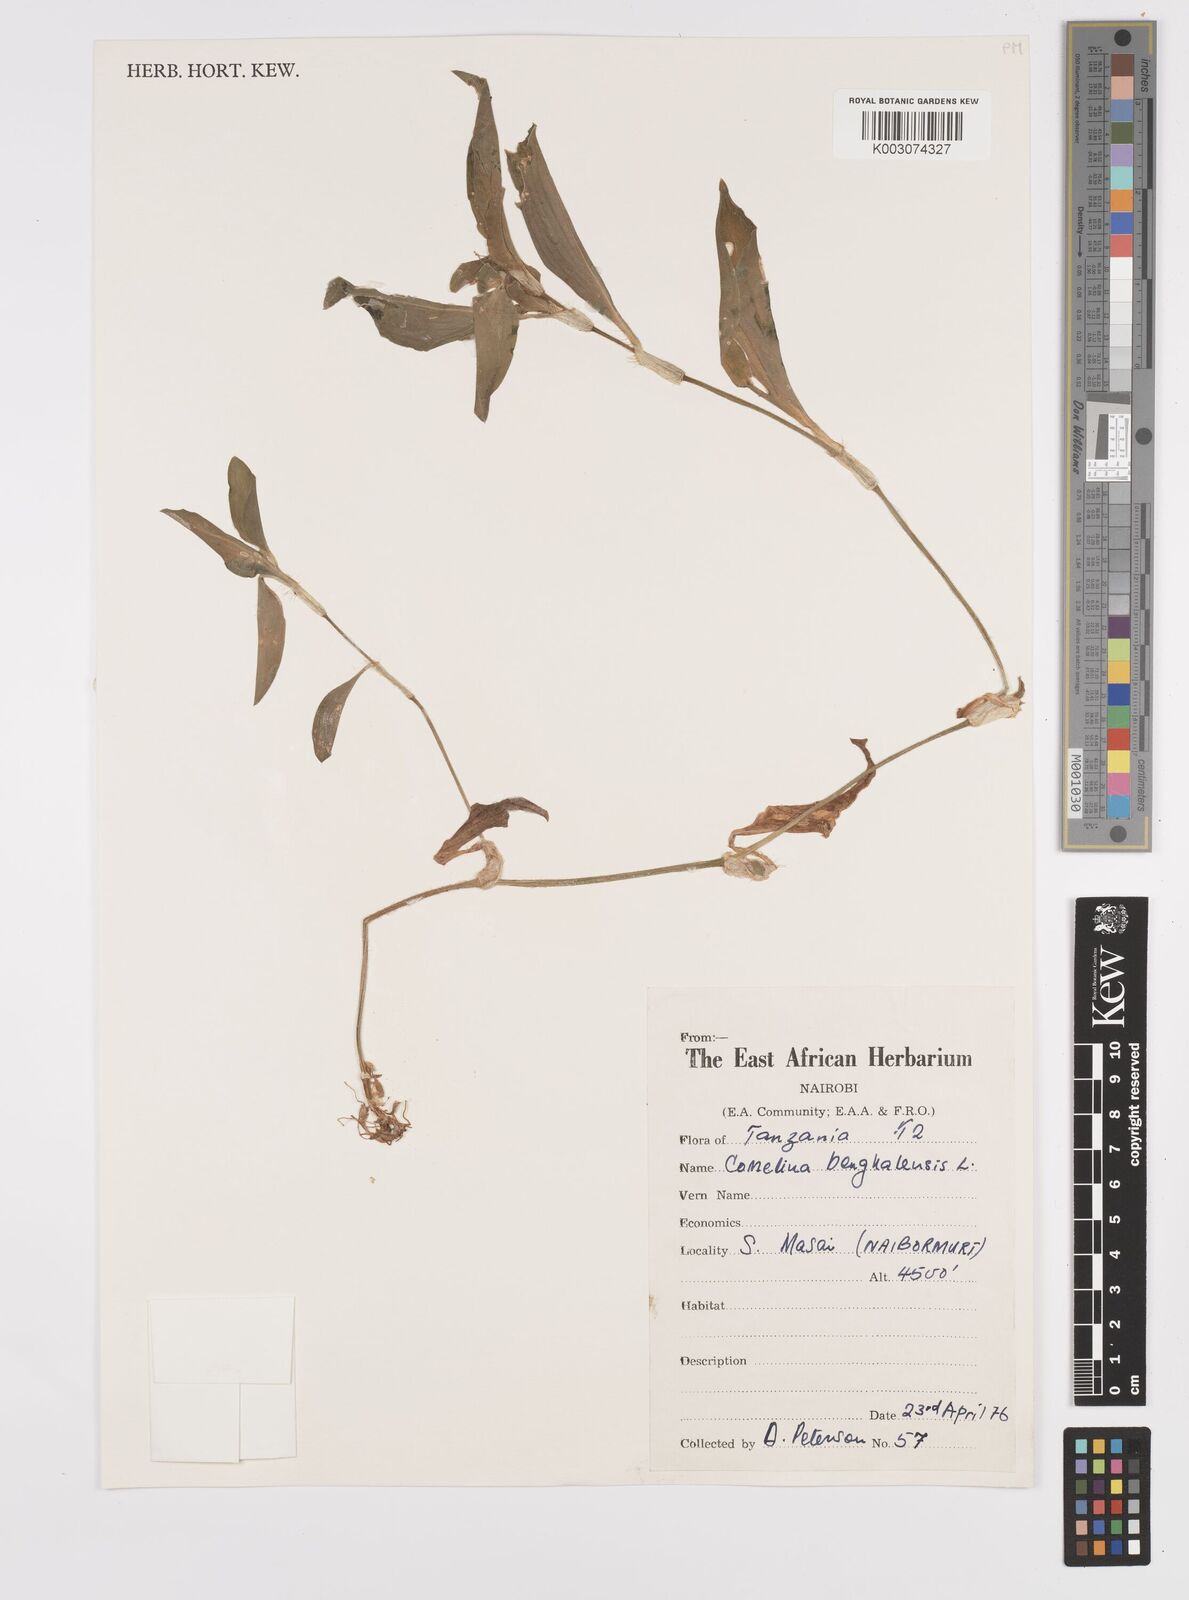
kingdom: Plantae
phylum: Tracheophyta
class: Liliopsida
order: Commelinales
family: Commelinaceae
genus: Commelina
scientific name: Commelina benghalensis
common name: Jio
